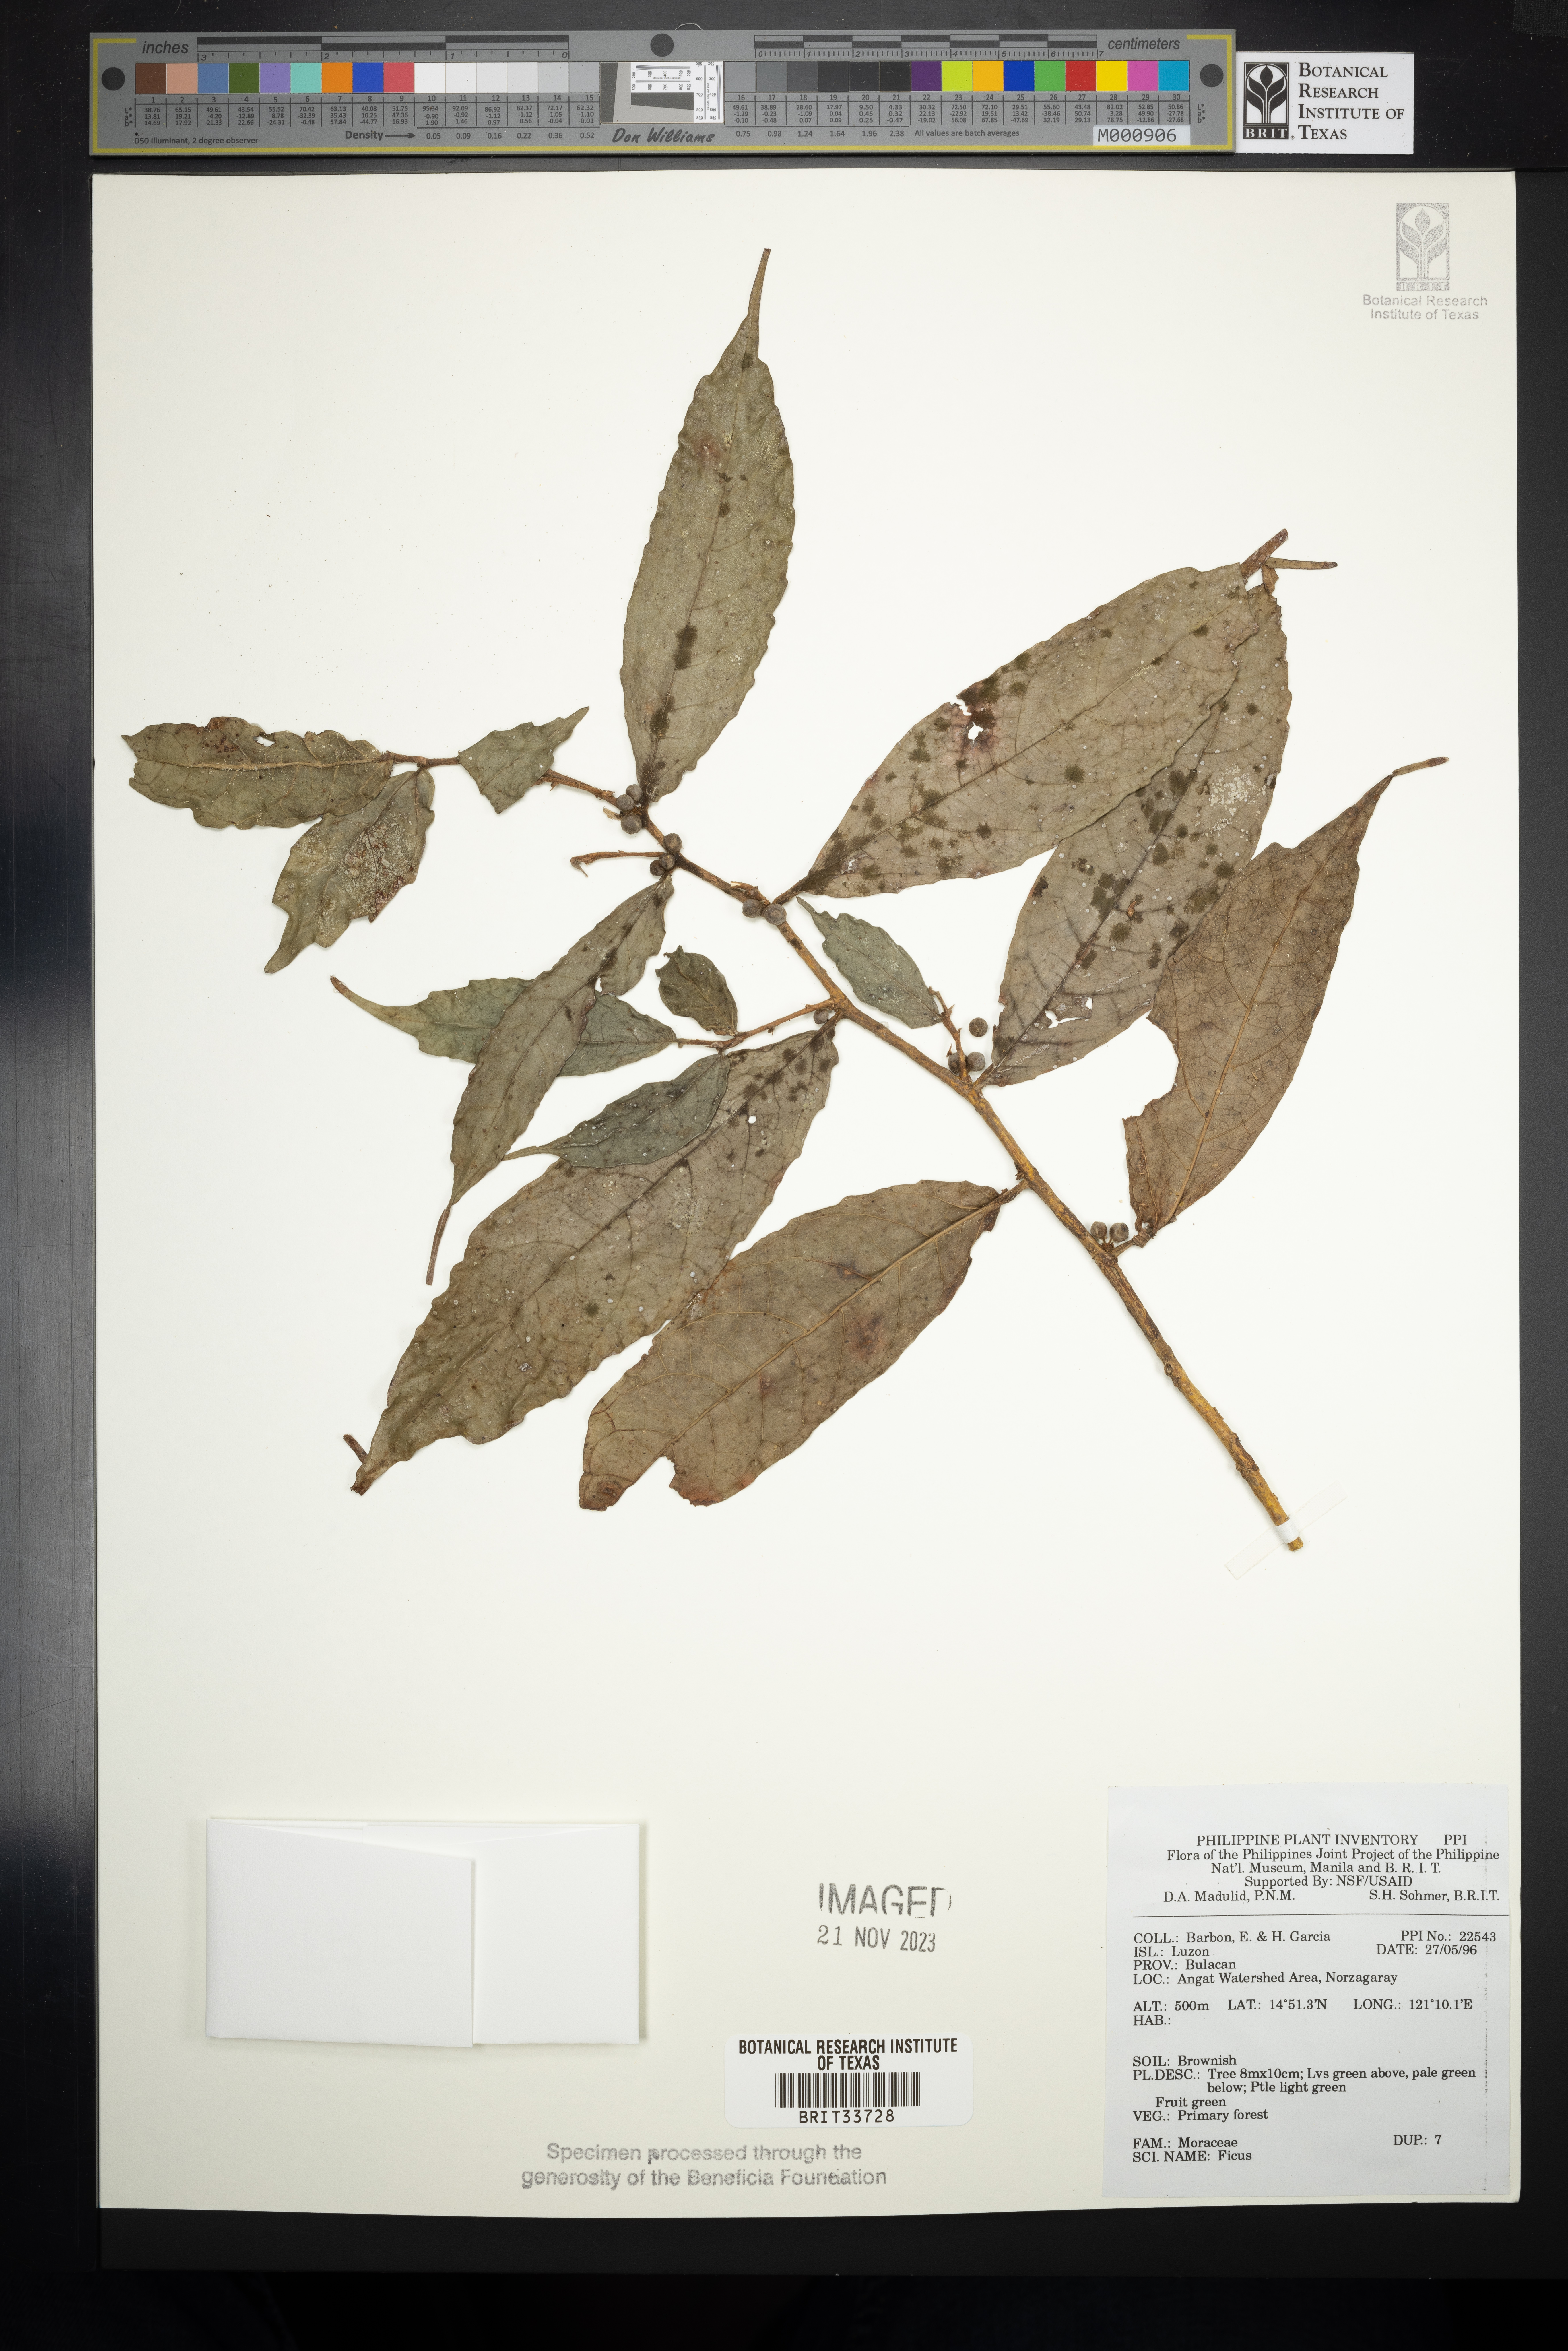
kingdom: Plantae
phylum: Tracheophyta
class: Magnoliopsida
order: Rosales
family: Moraceae
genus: Ficus
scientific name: Ficus
